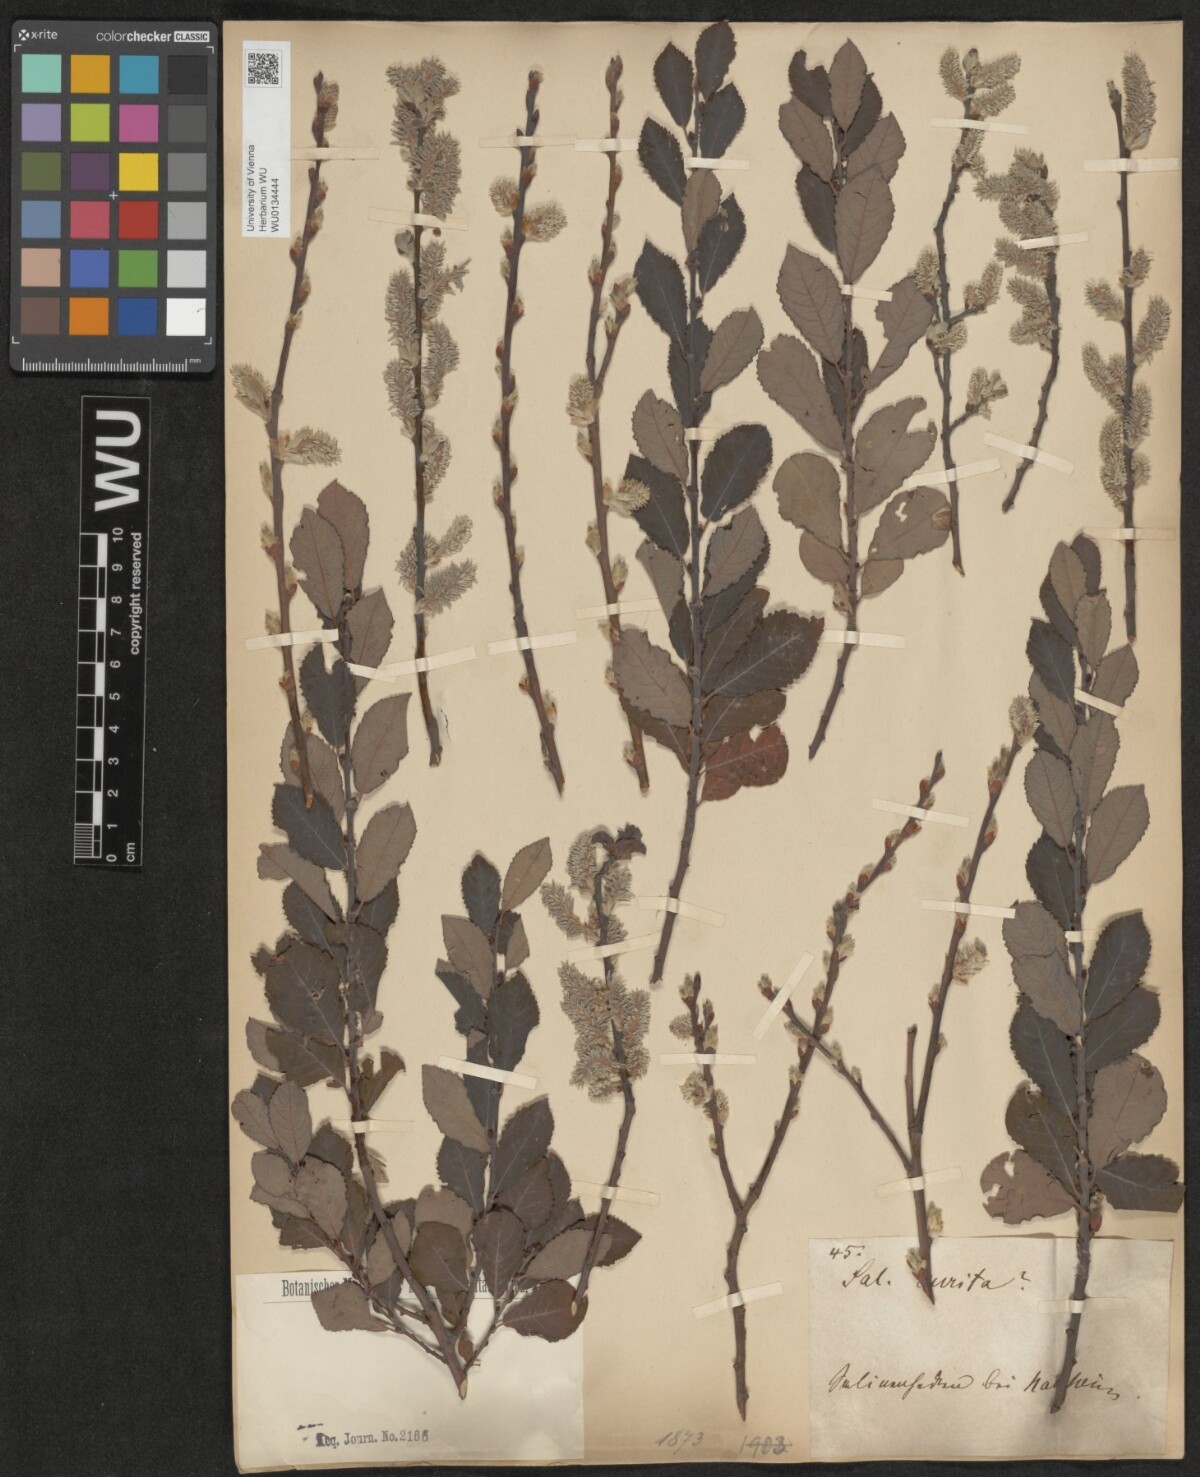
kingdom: Plantae
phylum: Tracheophyta
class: Magnoliopsida
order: Malpighiales
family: Salicaceae
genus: Salix
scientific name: Salix aurita
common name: Eared willow
